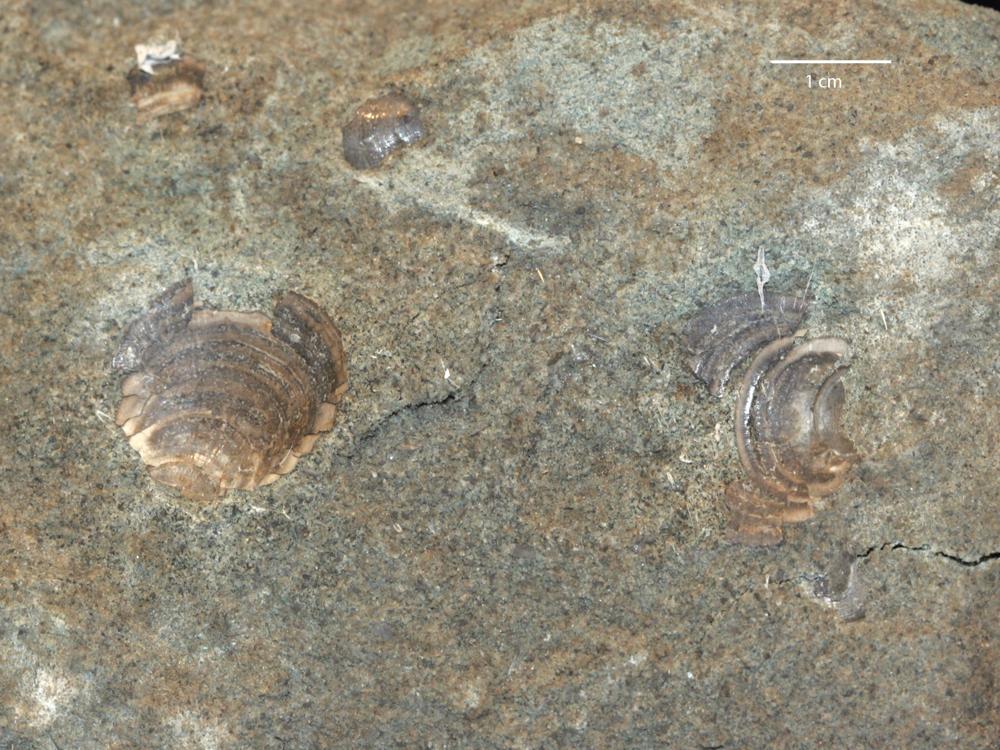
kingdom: Animalia
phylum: Brachiopoda
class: Lingulata
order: Lingulida
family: Zhanatellidae
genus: Thysanotos
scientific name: Thysanotos
